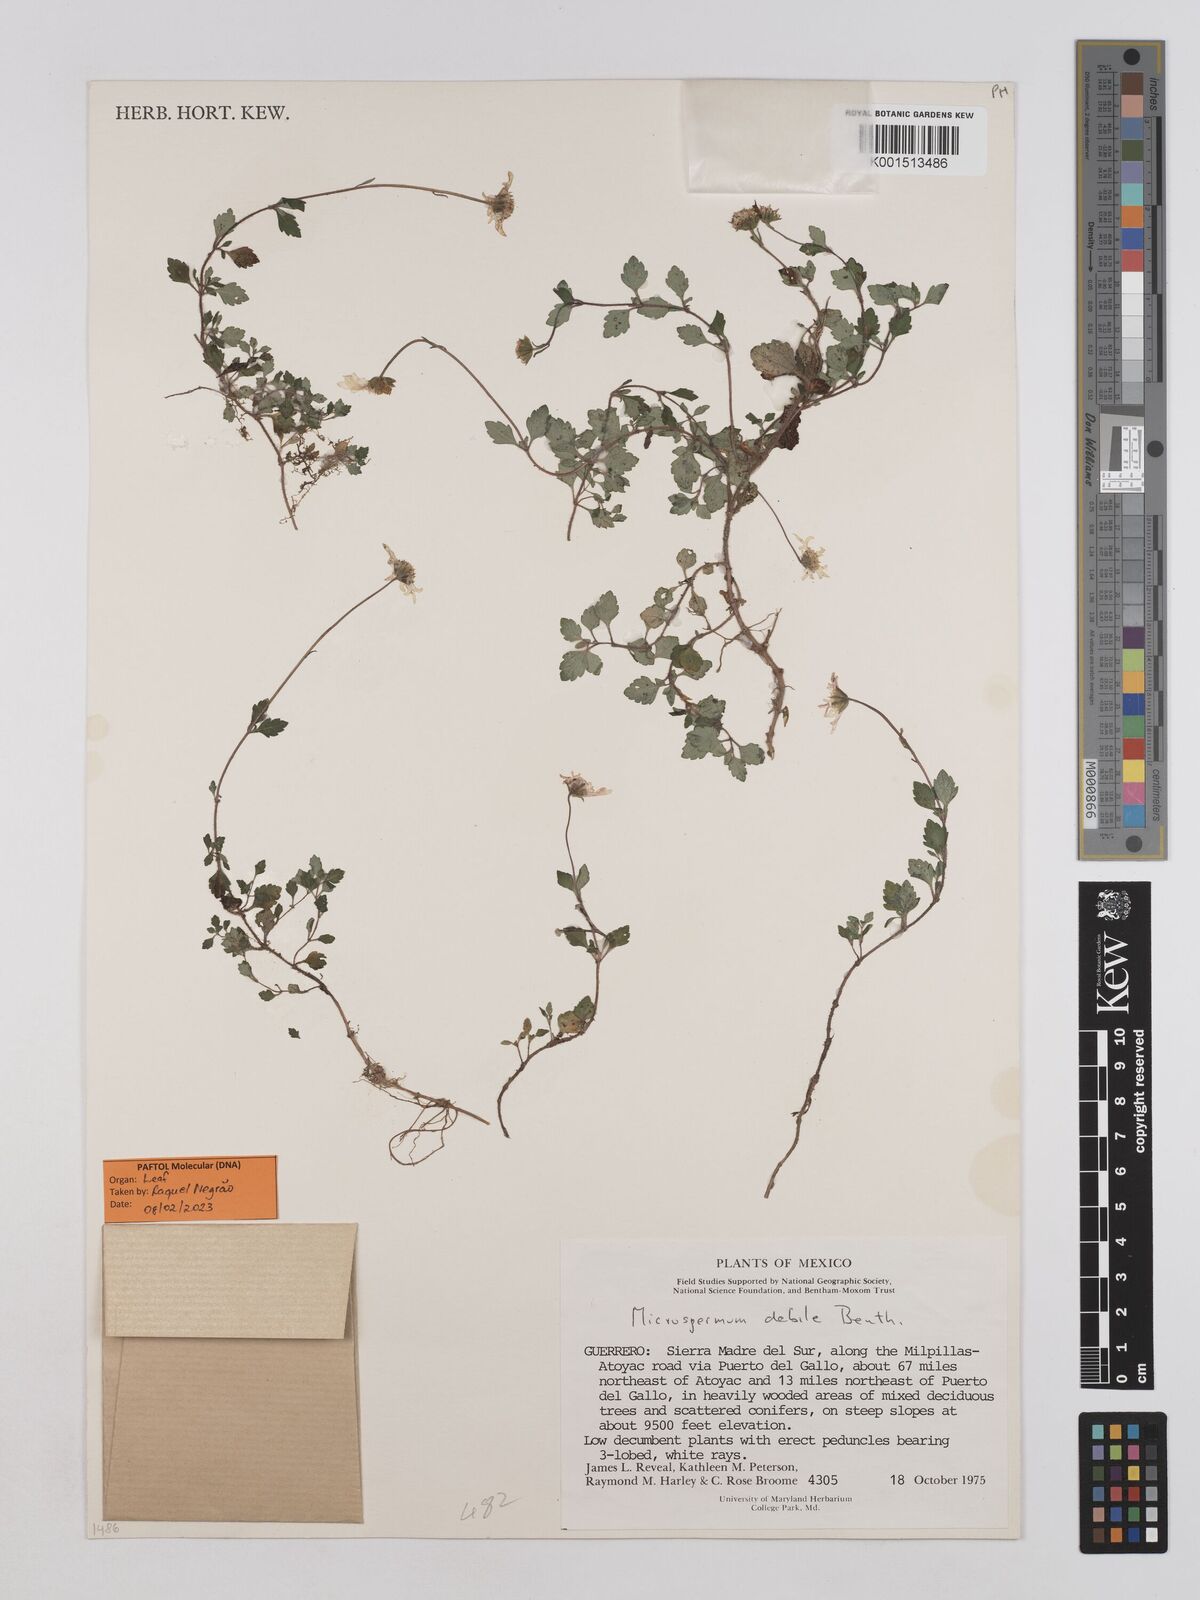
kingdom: Plantae
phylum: Tracheophyta
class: Magnoliopsida
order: Asterales
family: Asteraceae
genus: Microspermum
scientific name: Microspermum debile
